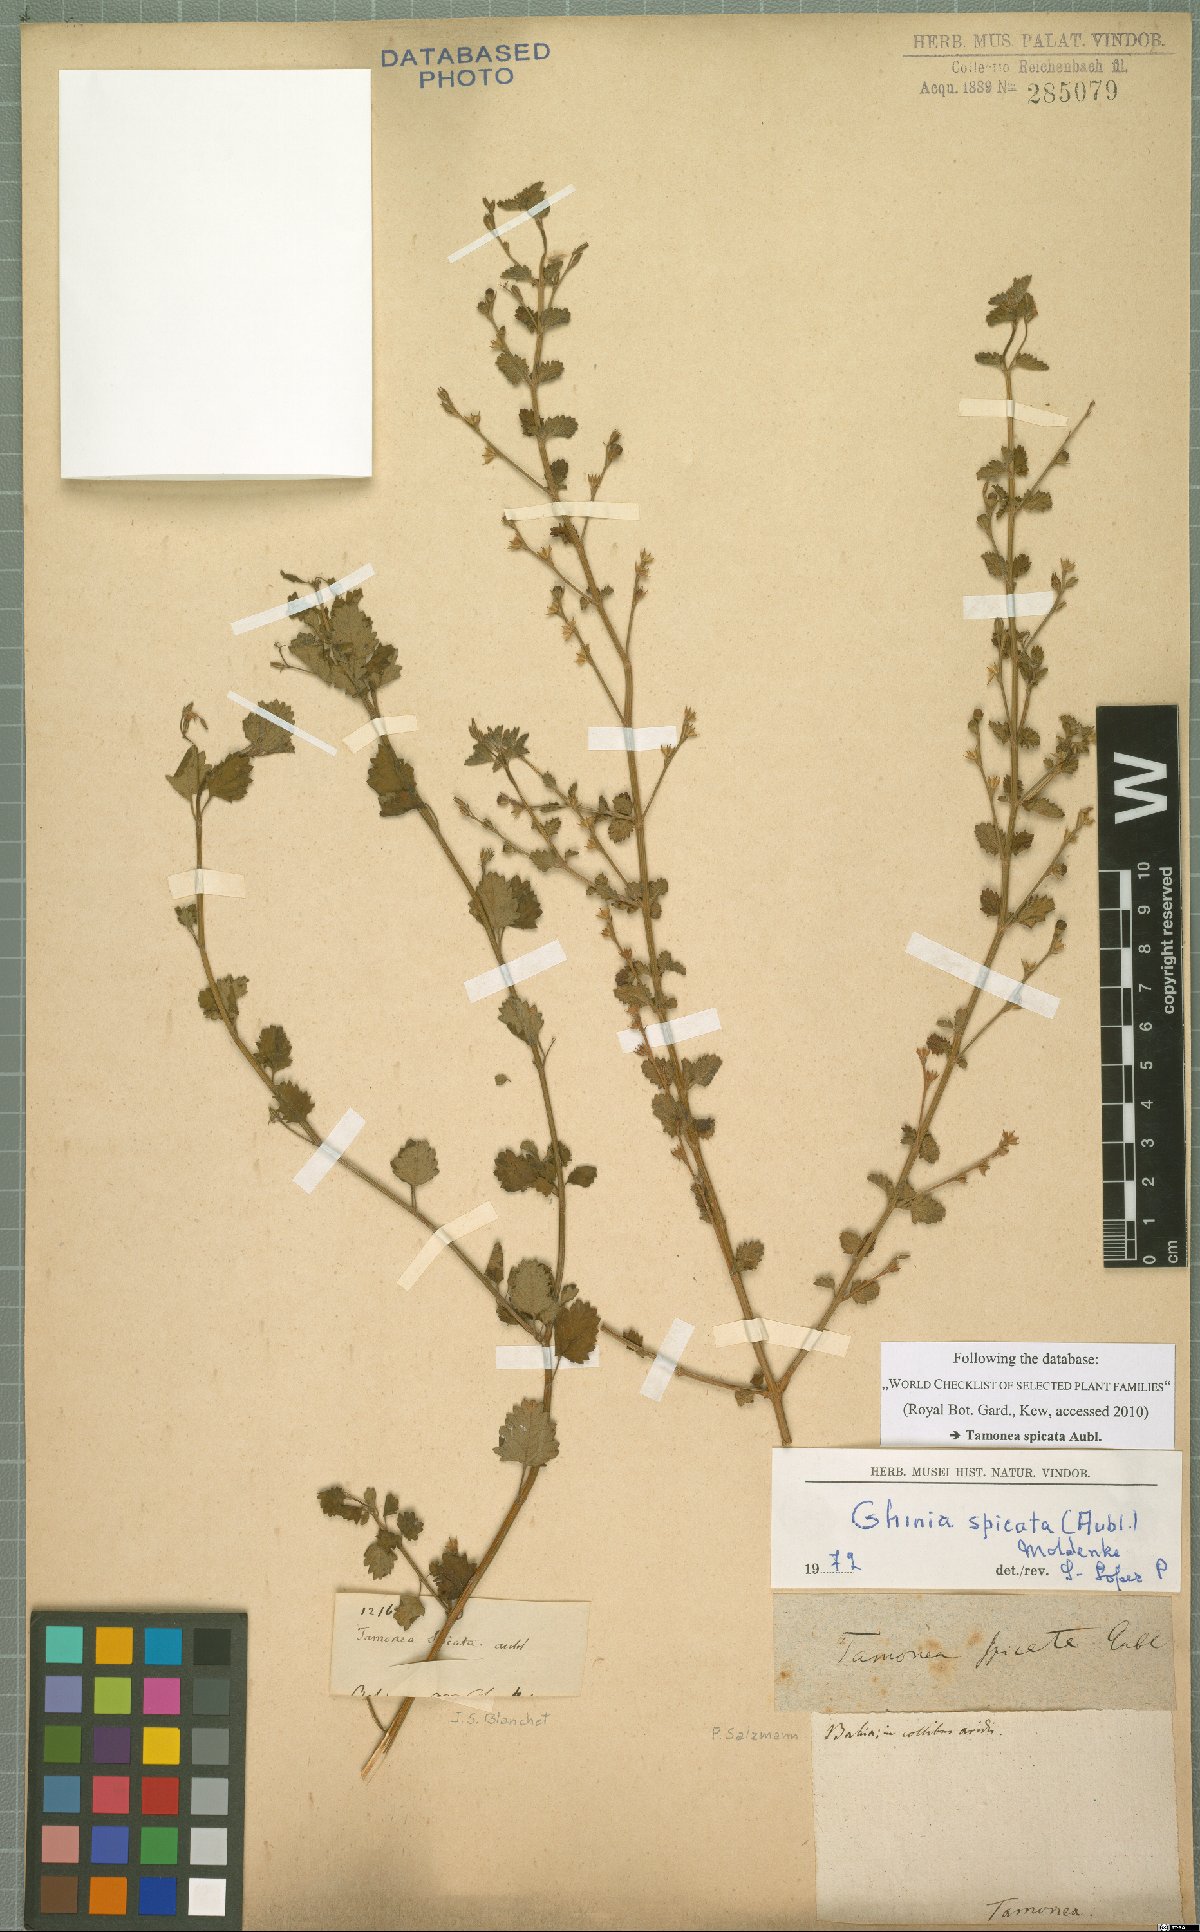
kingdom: Plantae
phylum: Tracheophyta
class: Magnoliopsida
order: Lamiales
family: Verbenaceae
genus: Tamonea
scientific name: Tamonea spicata
